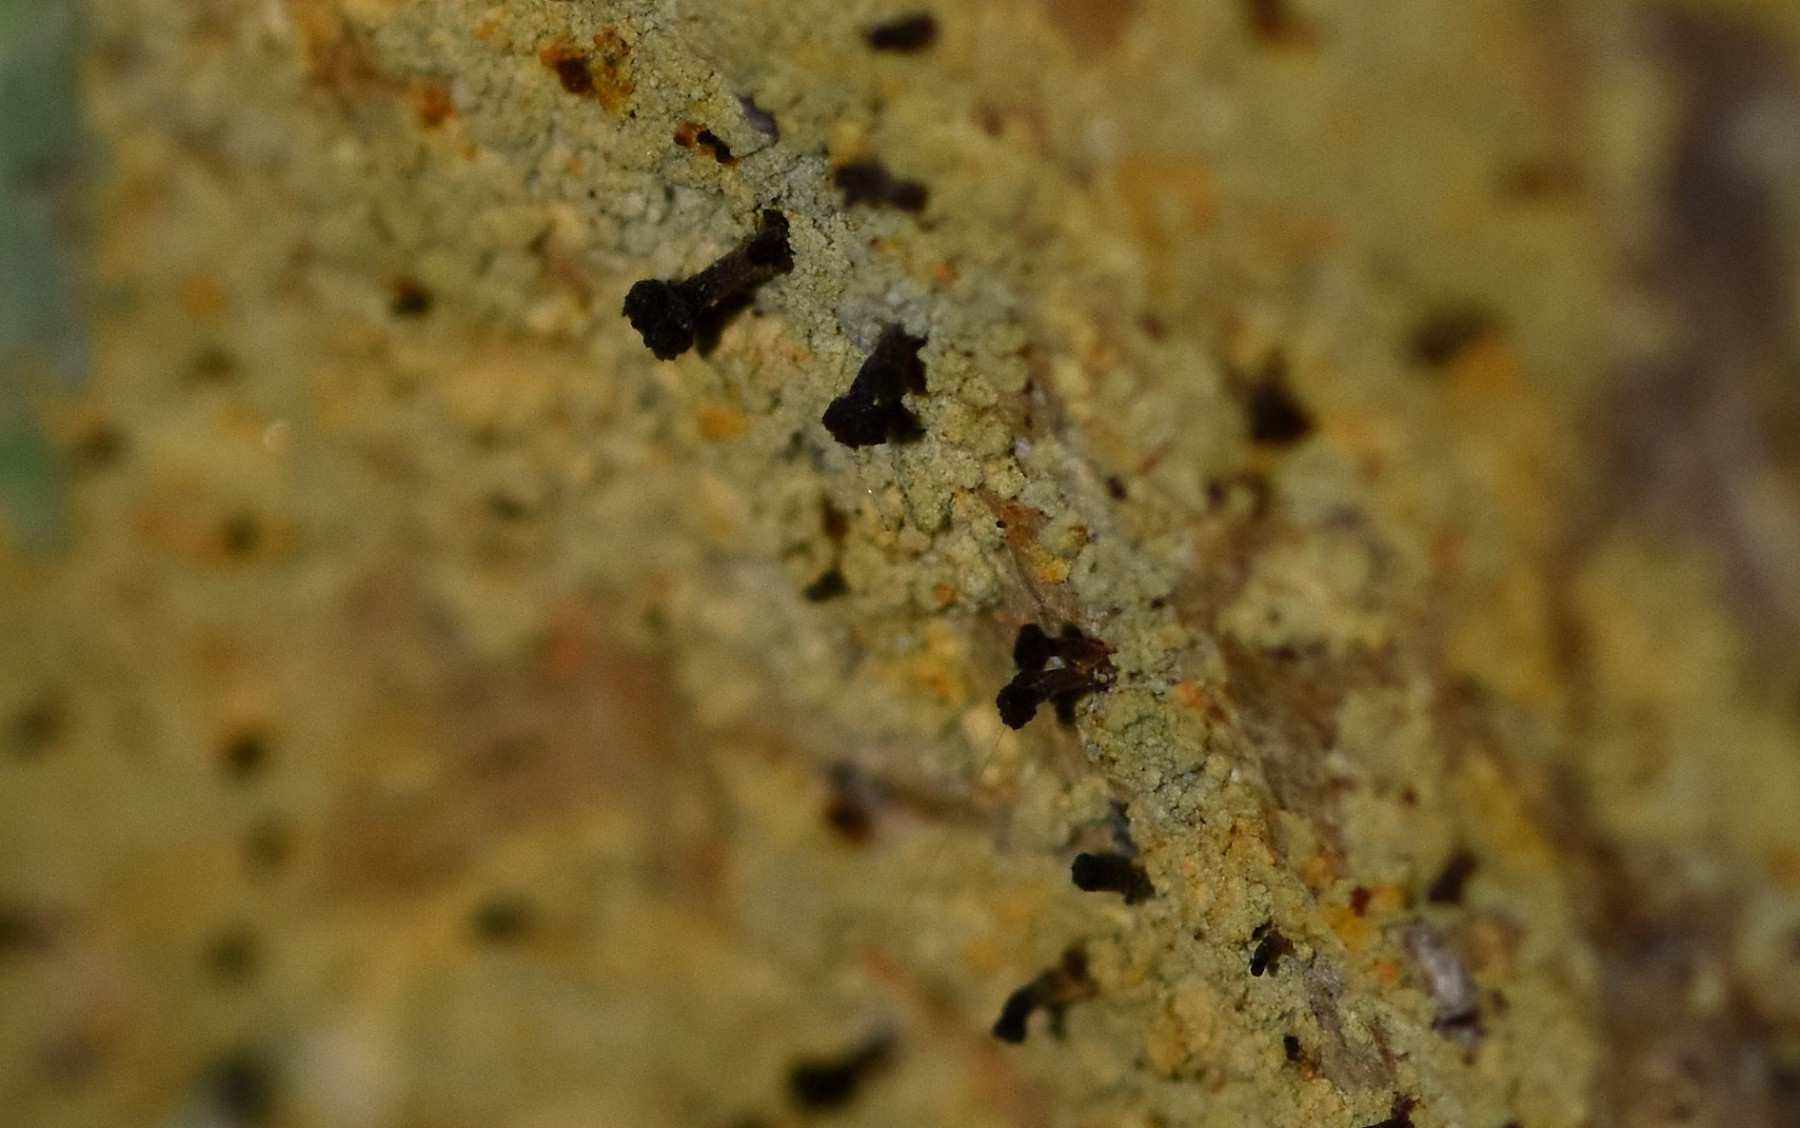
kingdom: Fungi
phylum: Ascomycota
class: Coniocybomycetes
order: Coniocybales
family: Coniocybaceae
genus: Chaenotheca
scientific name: Chaenotheca ferruginea
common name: rustbrun knappenålslav
